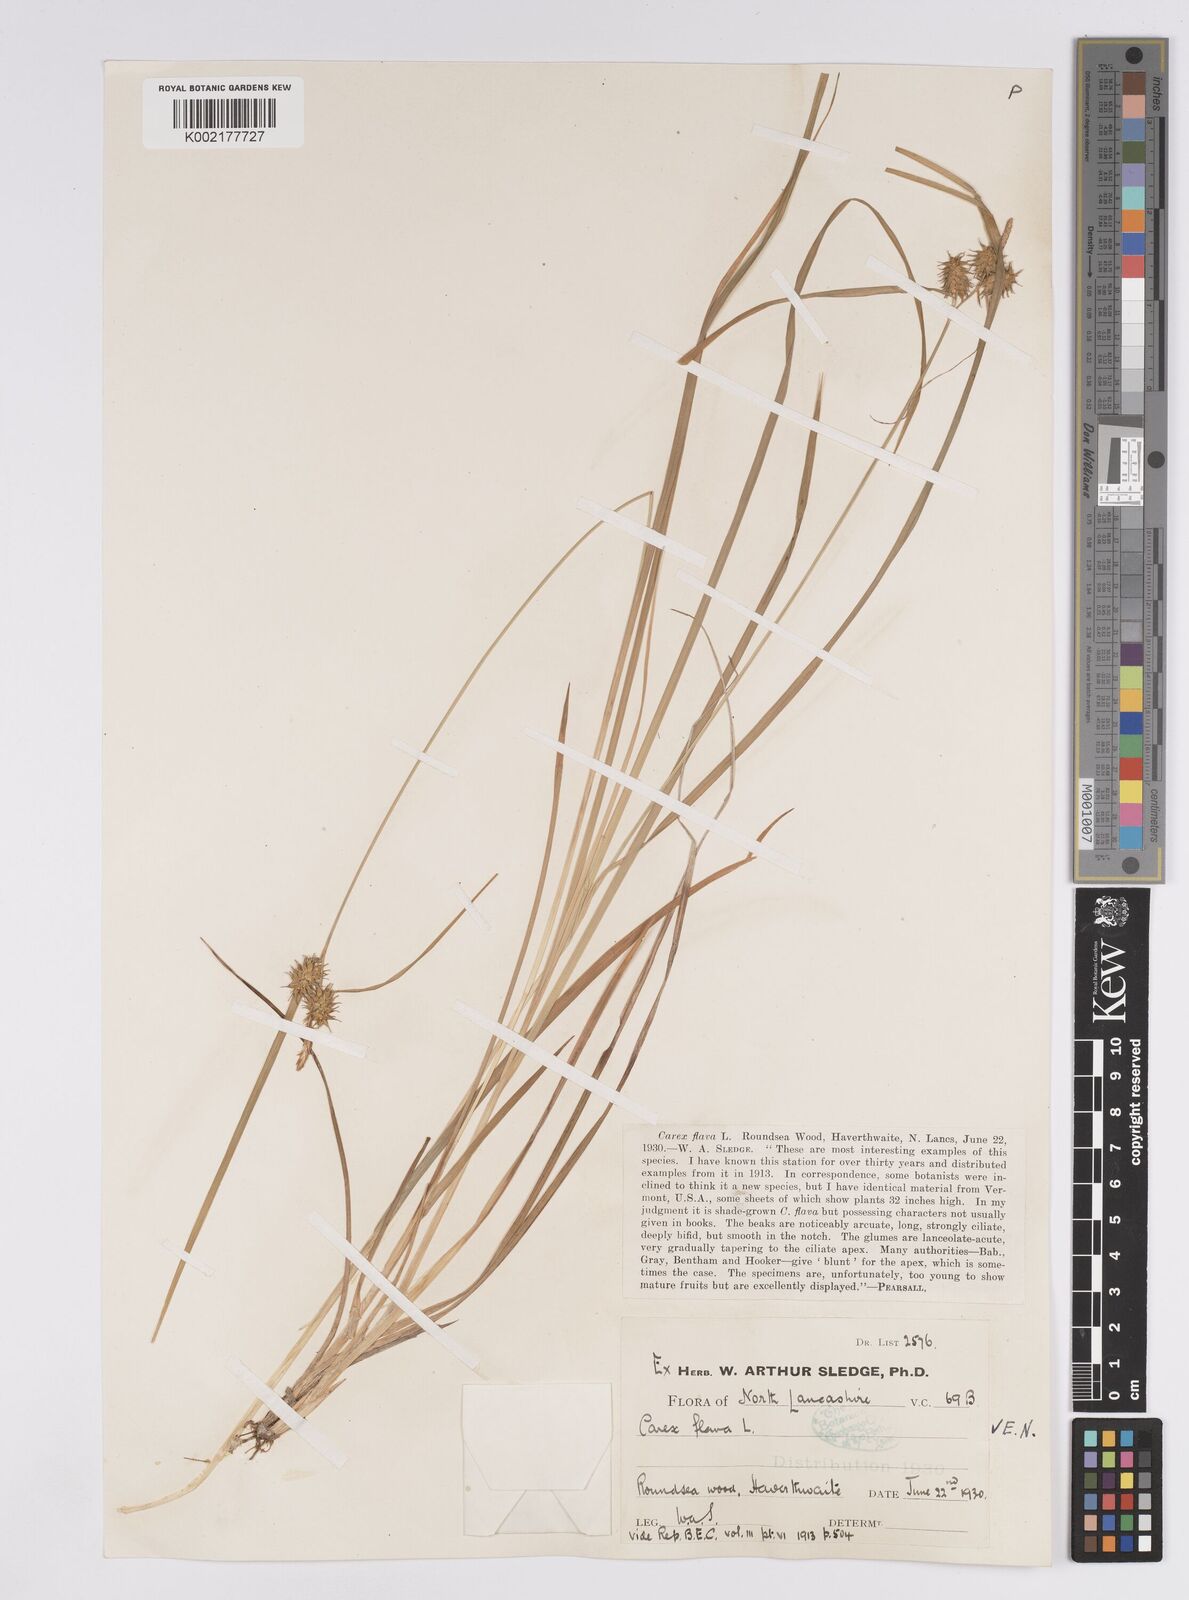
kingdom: Plantae
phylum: Tracheophyta
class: Liliopsida
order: Poales
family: Cyperaceae
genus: Carex
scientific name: Carex flava
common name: Large yellow-sedge
